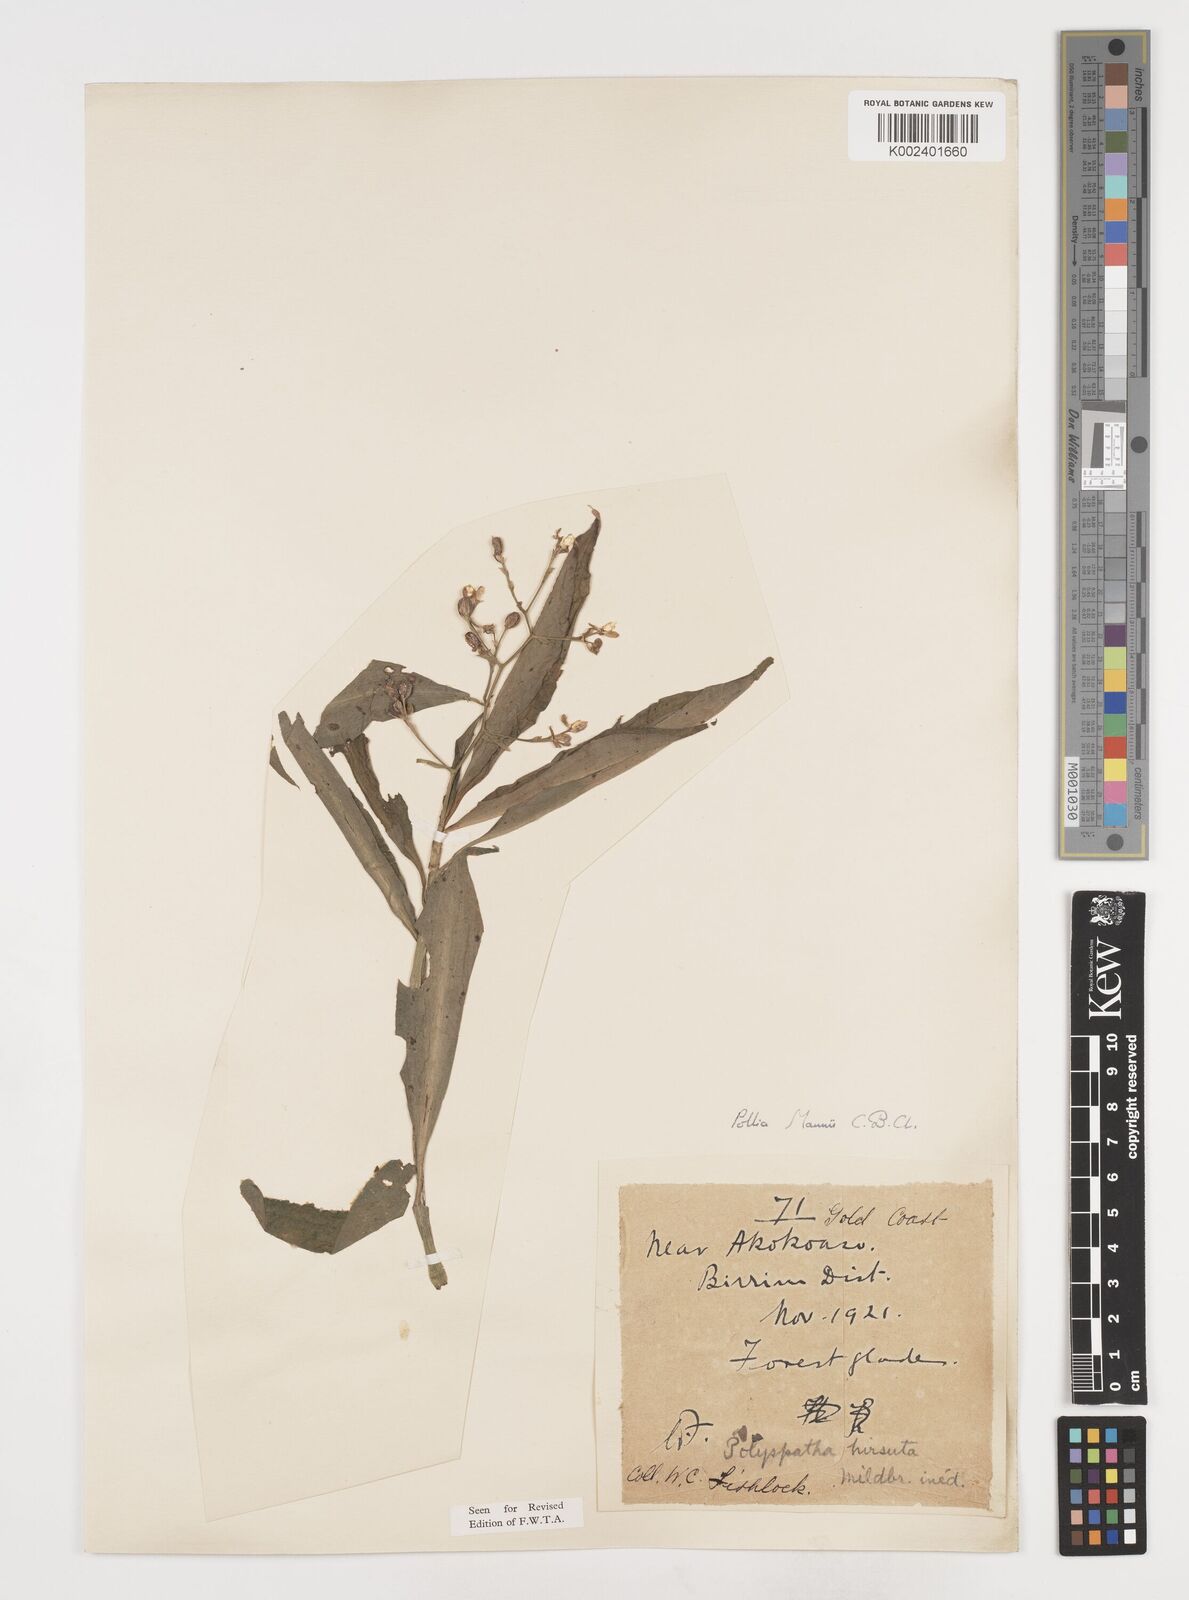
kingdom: Plantae
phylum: Tracheophyta
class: Liliopsida
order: Commelinales
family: Commelinaceae
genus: Pollia
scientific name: Pollia mannii
